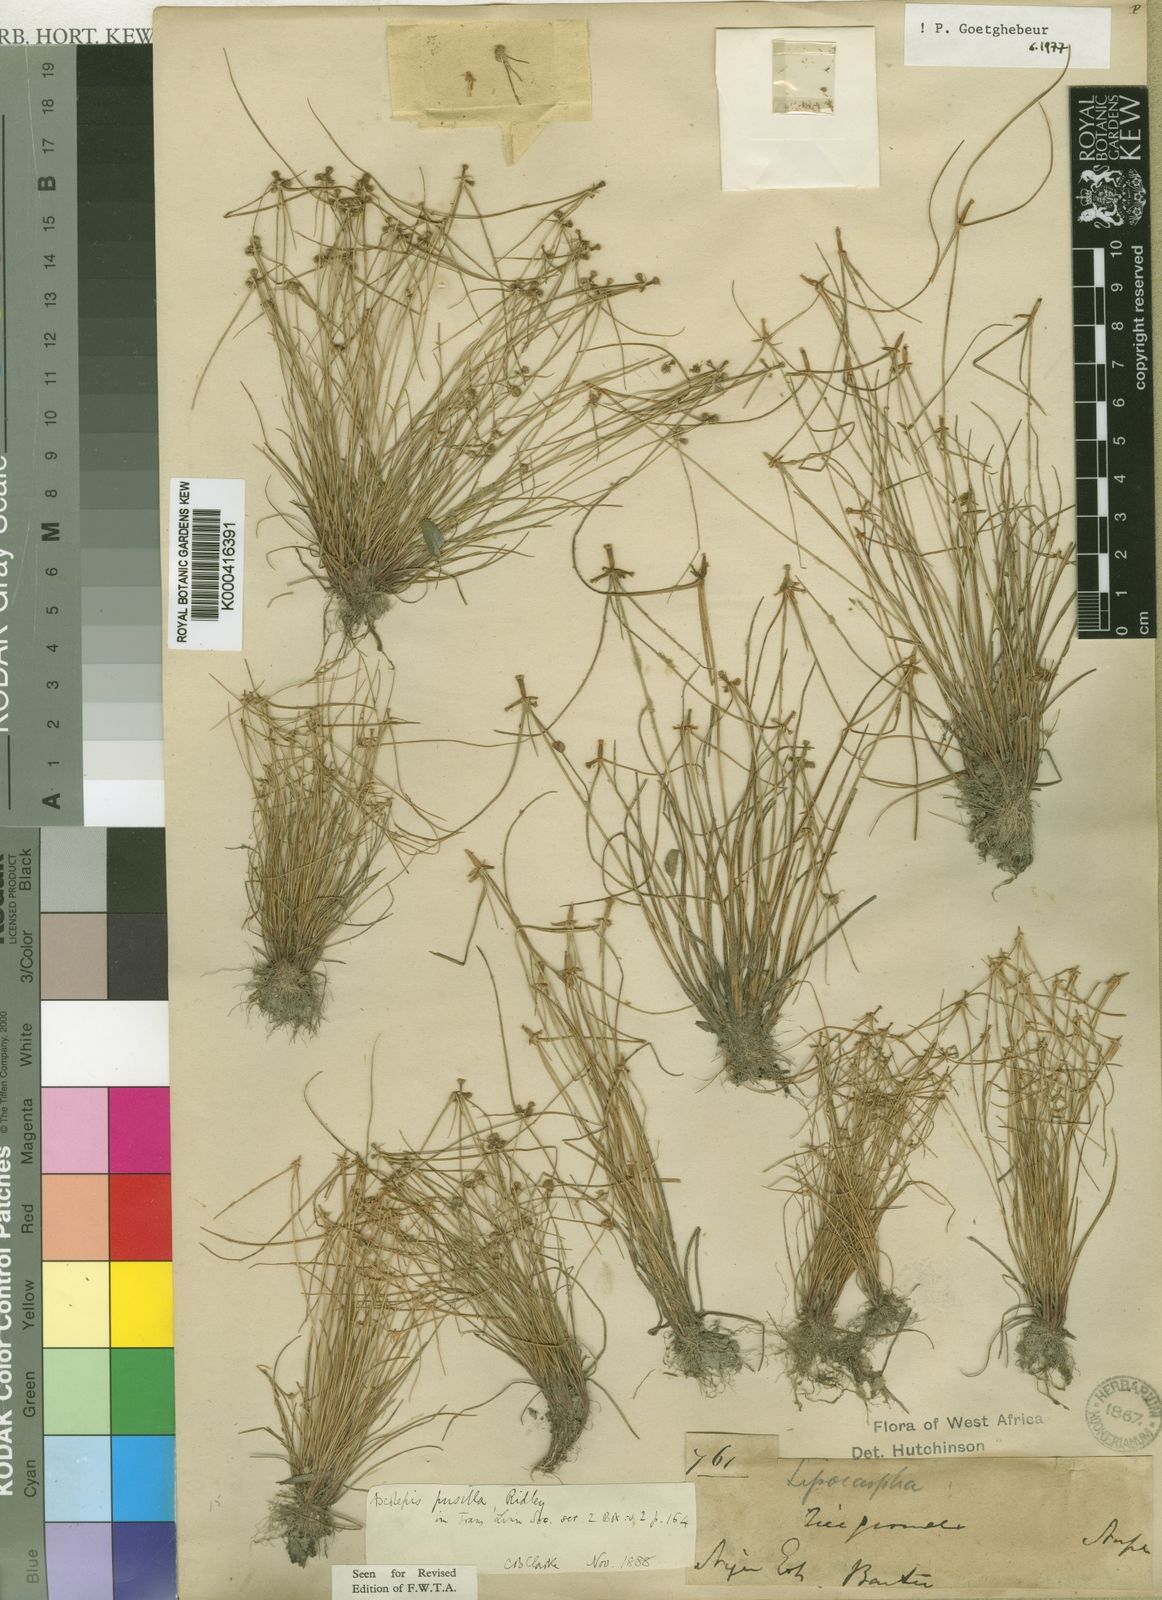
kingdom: Plantae
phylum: Tracheophyta
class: Liliopsida
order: Poales
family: Cyperaceae
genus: Cyperus
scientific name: Cyperus ascopusillus
